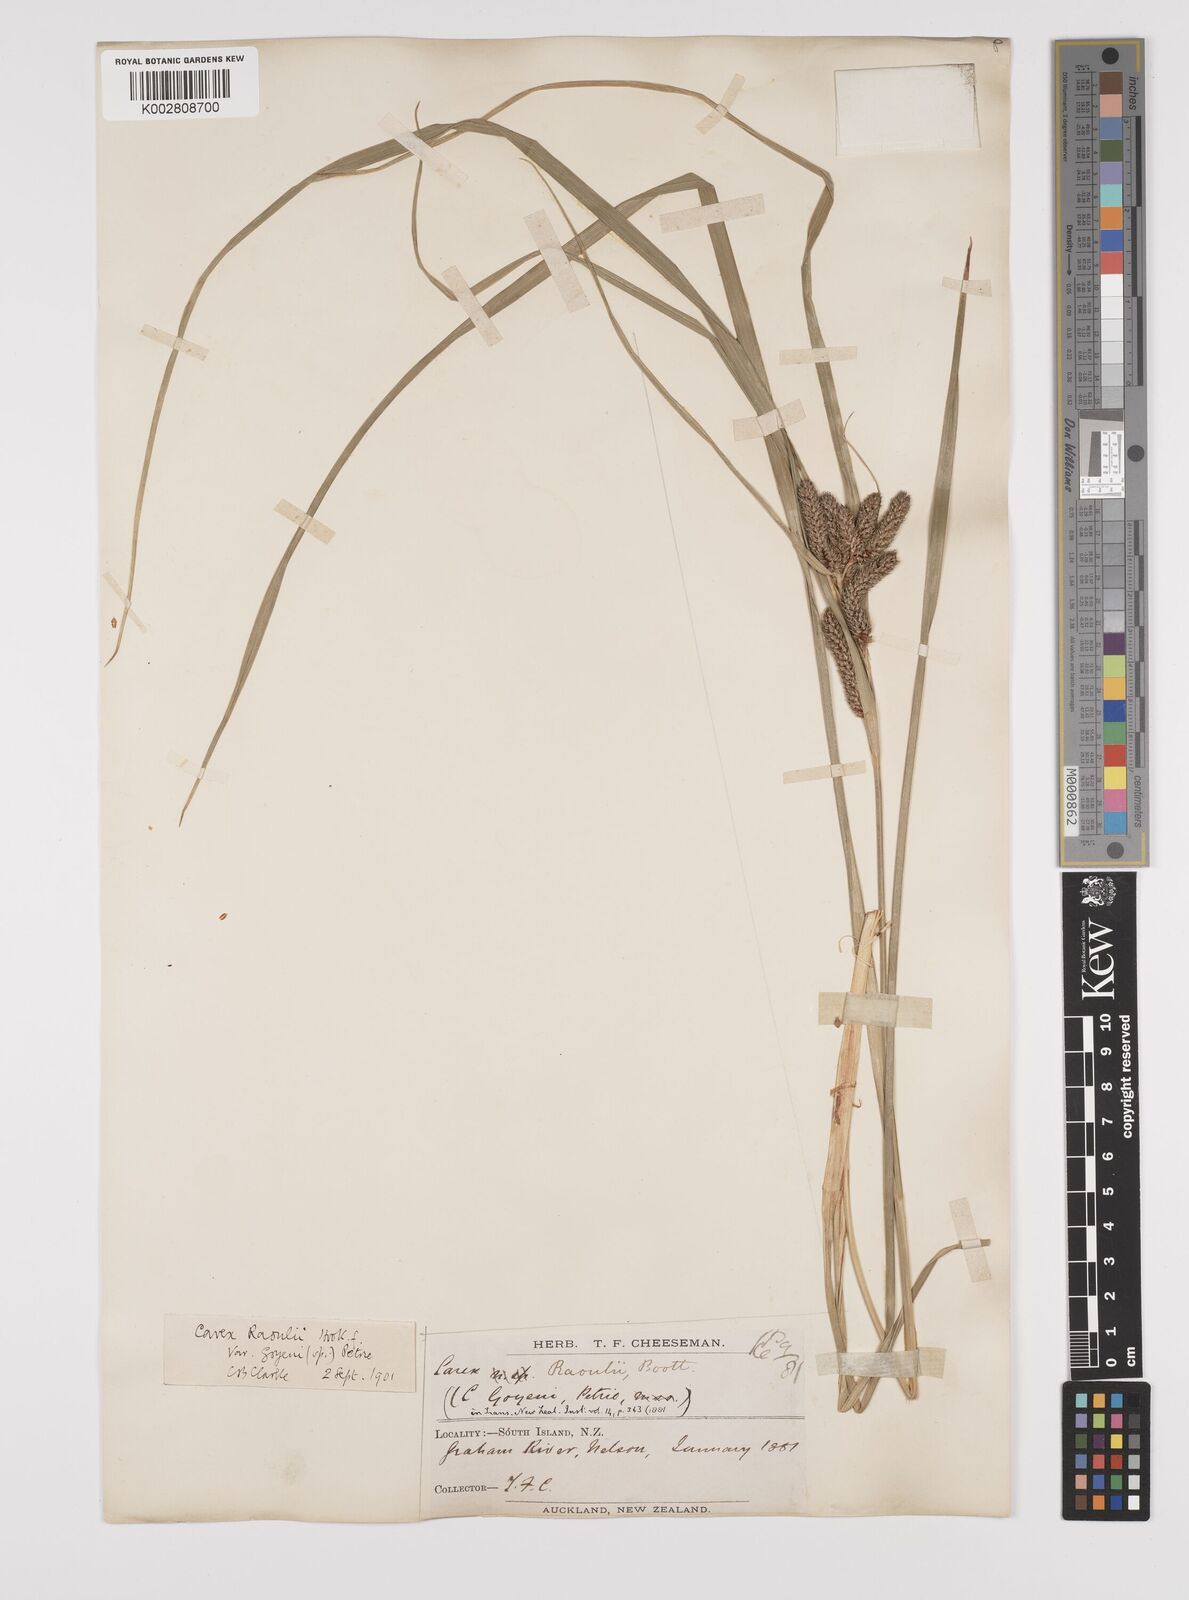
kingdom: Plantae
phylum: Tracheophyta
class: Liliopsida
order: Poales
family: Cyperaceae
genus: Carex
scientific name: Carex goyenii
